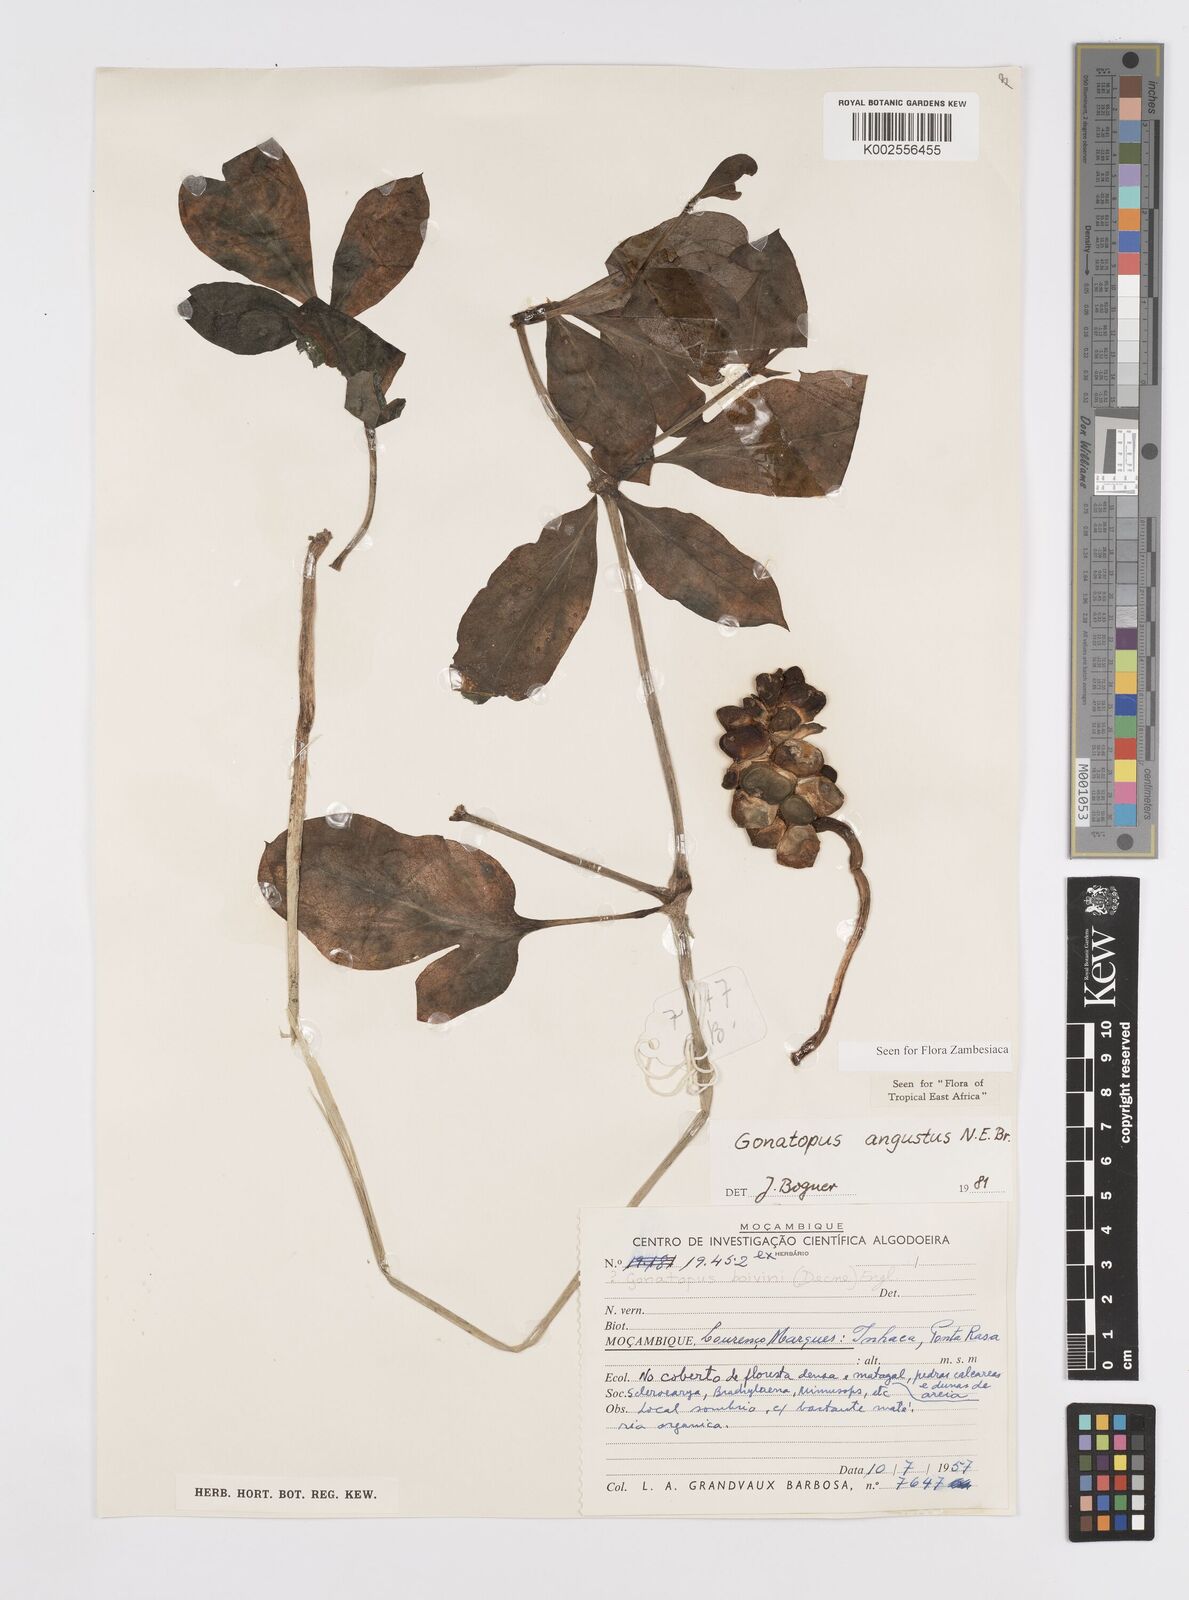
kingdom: Plantae
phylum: Tracheophyta
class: Liliopsida
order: Alismatales
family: Araceae
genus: Gonatopus
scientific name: Gonatopus angustus
